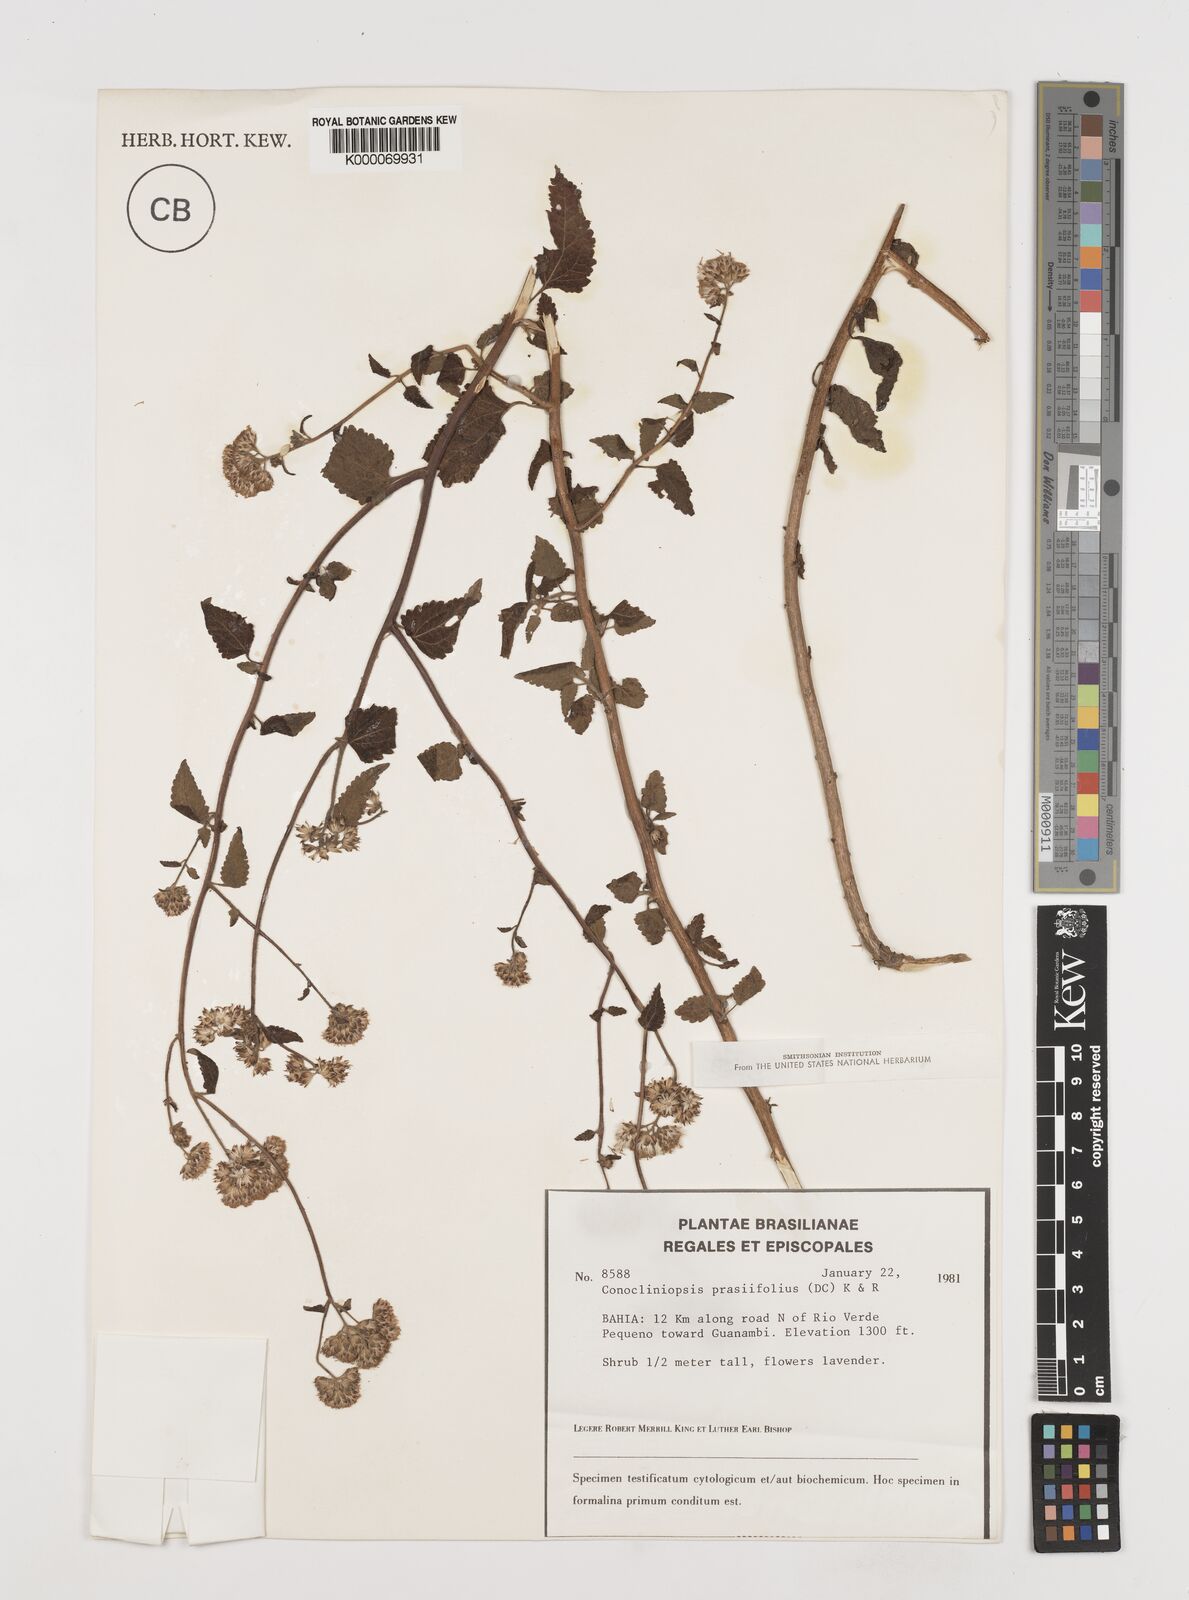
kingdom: Plantae
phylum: Tracheophyta
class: Magnoliopsida
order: Asterales
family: Asteraceae
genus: Conocliniopsis
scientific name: Conocliniopsis grossedentata
